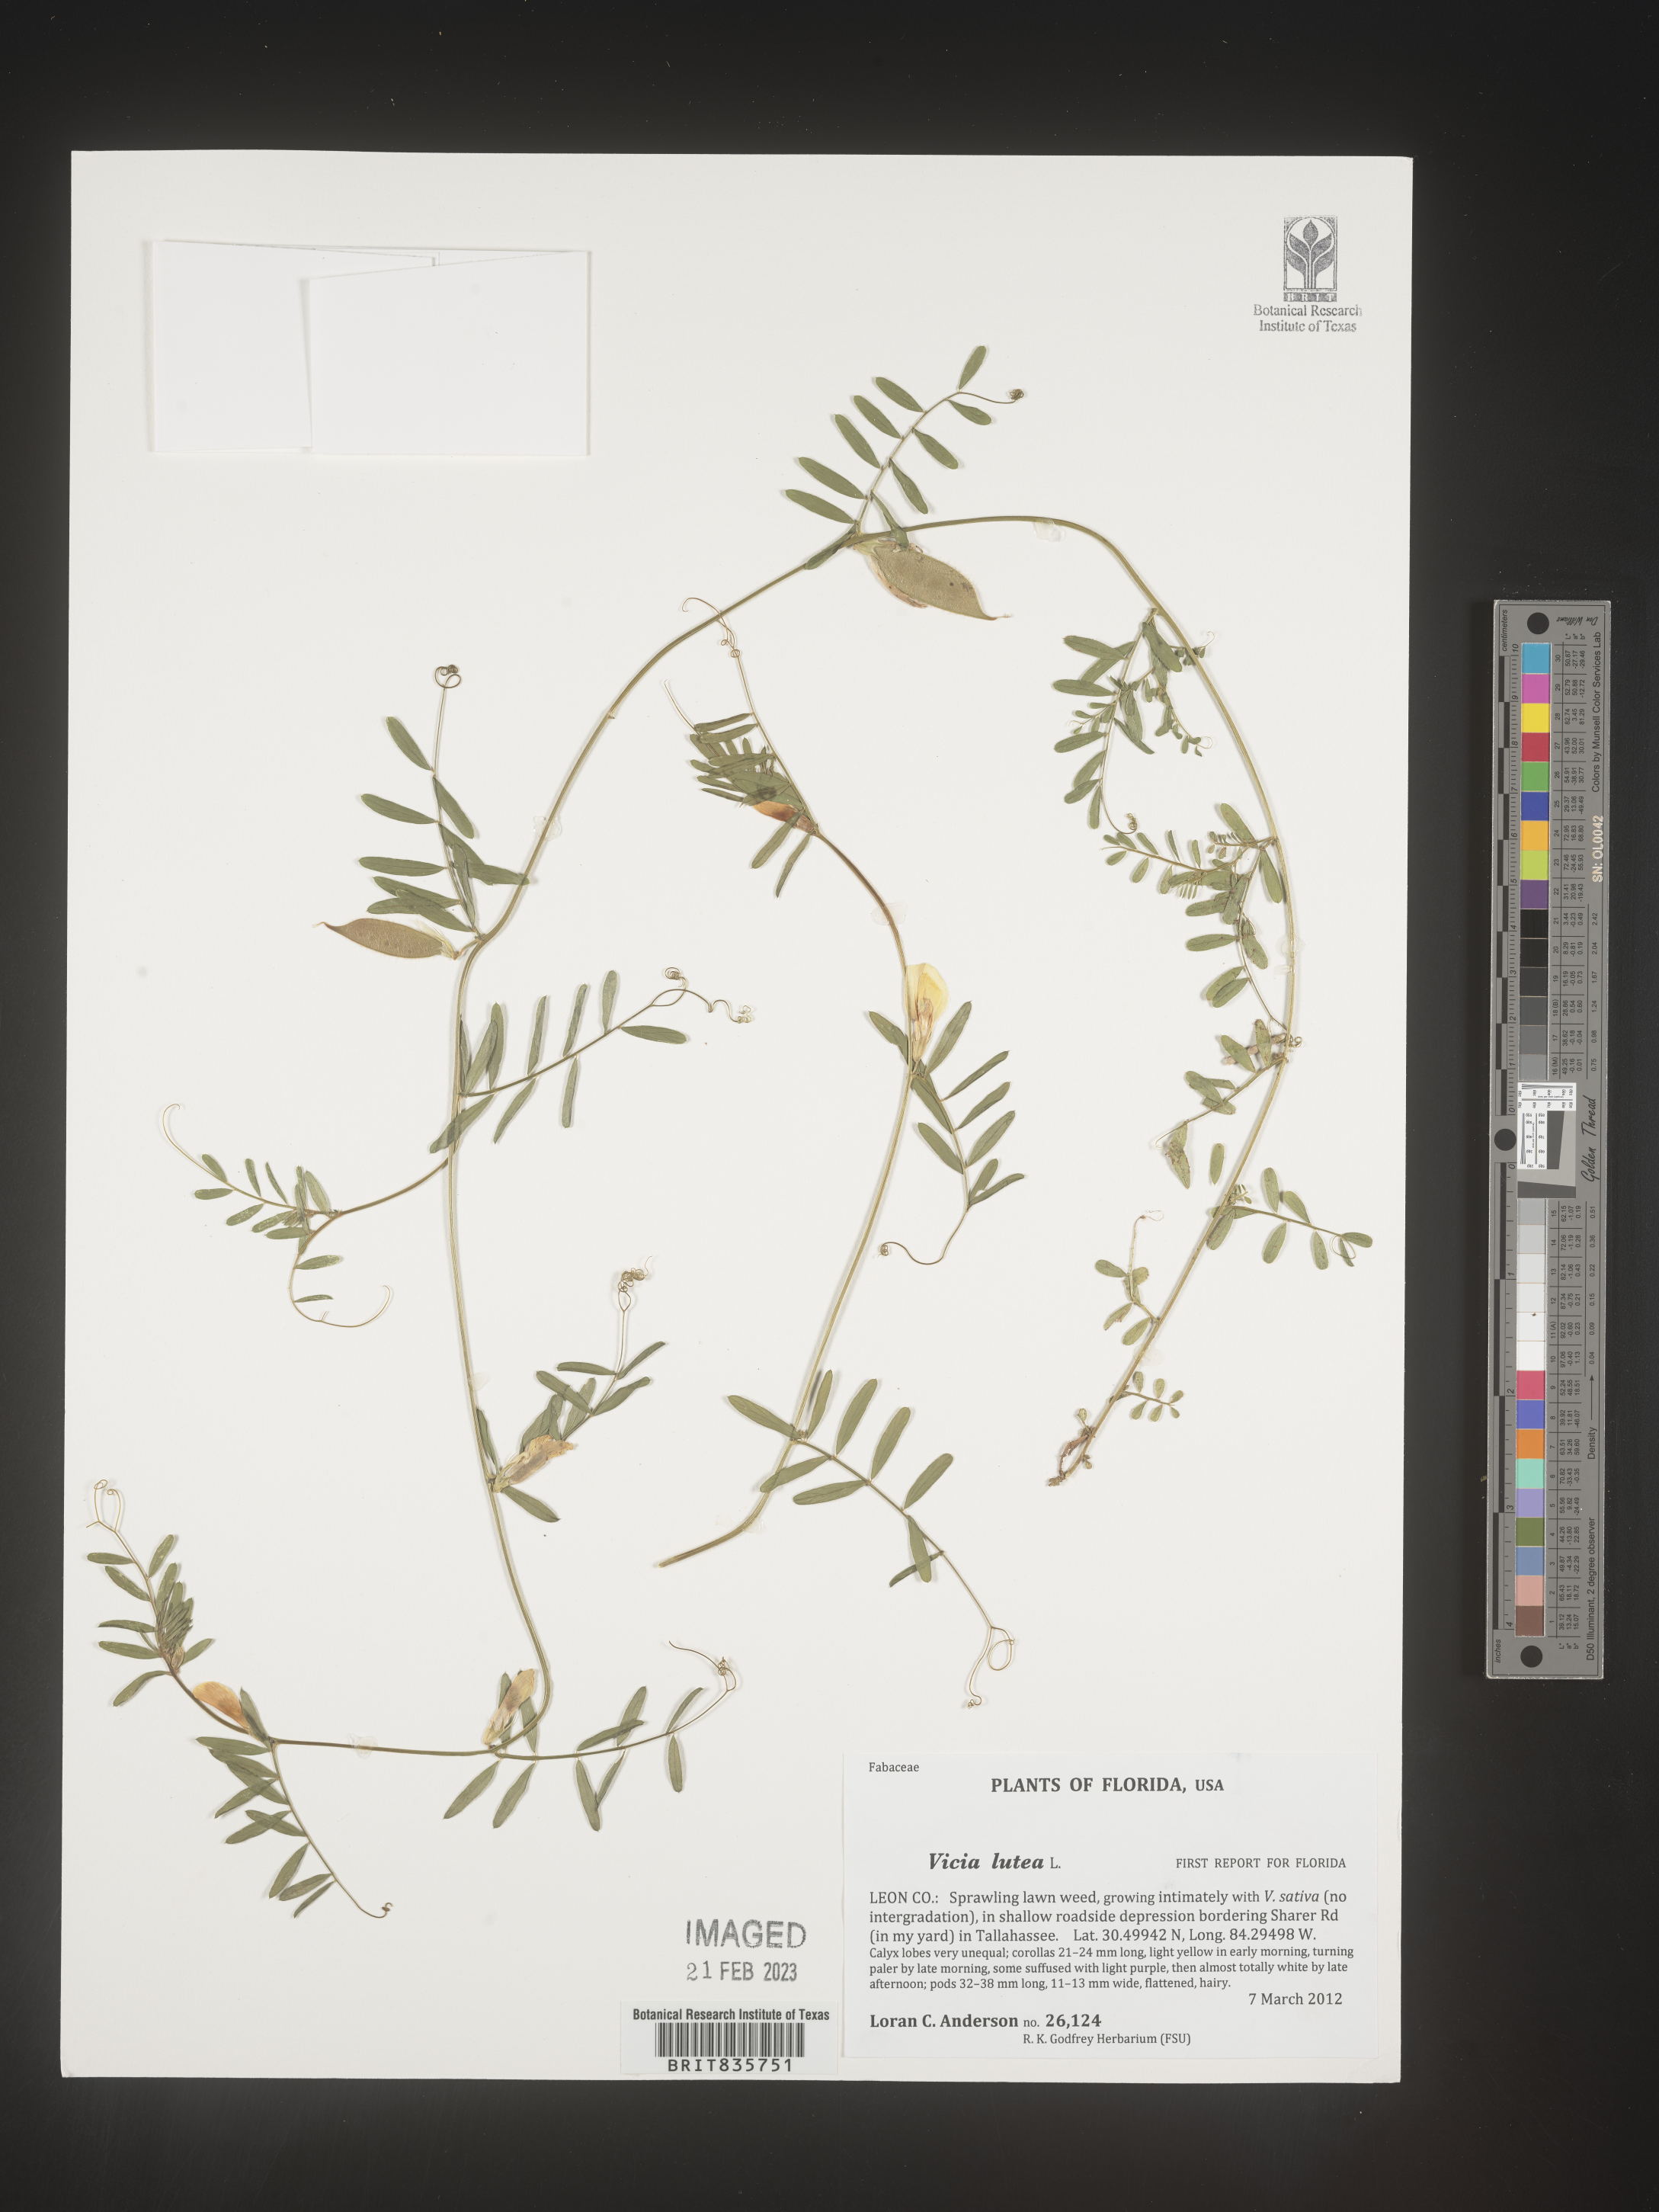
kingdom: Plantae
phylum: Tracheophyta
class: Magnoliopsida
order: Fabales
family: Fabaceae
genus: Vicia
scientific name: Vicia
